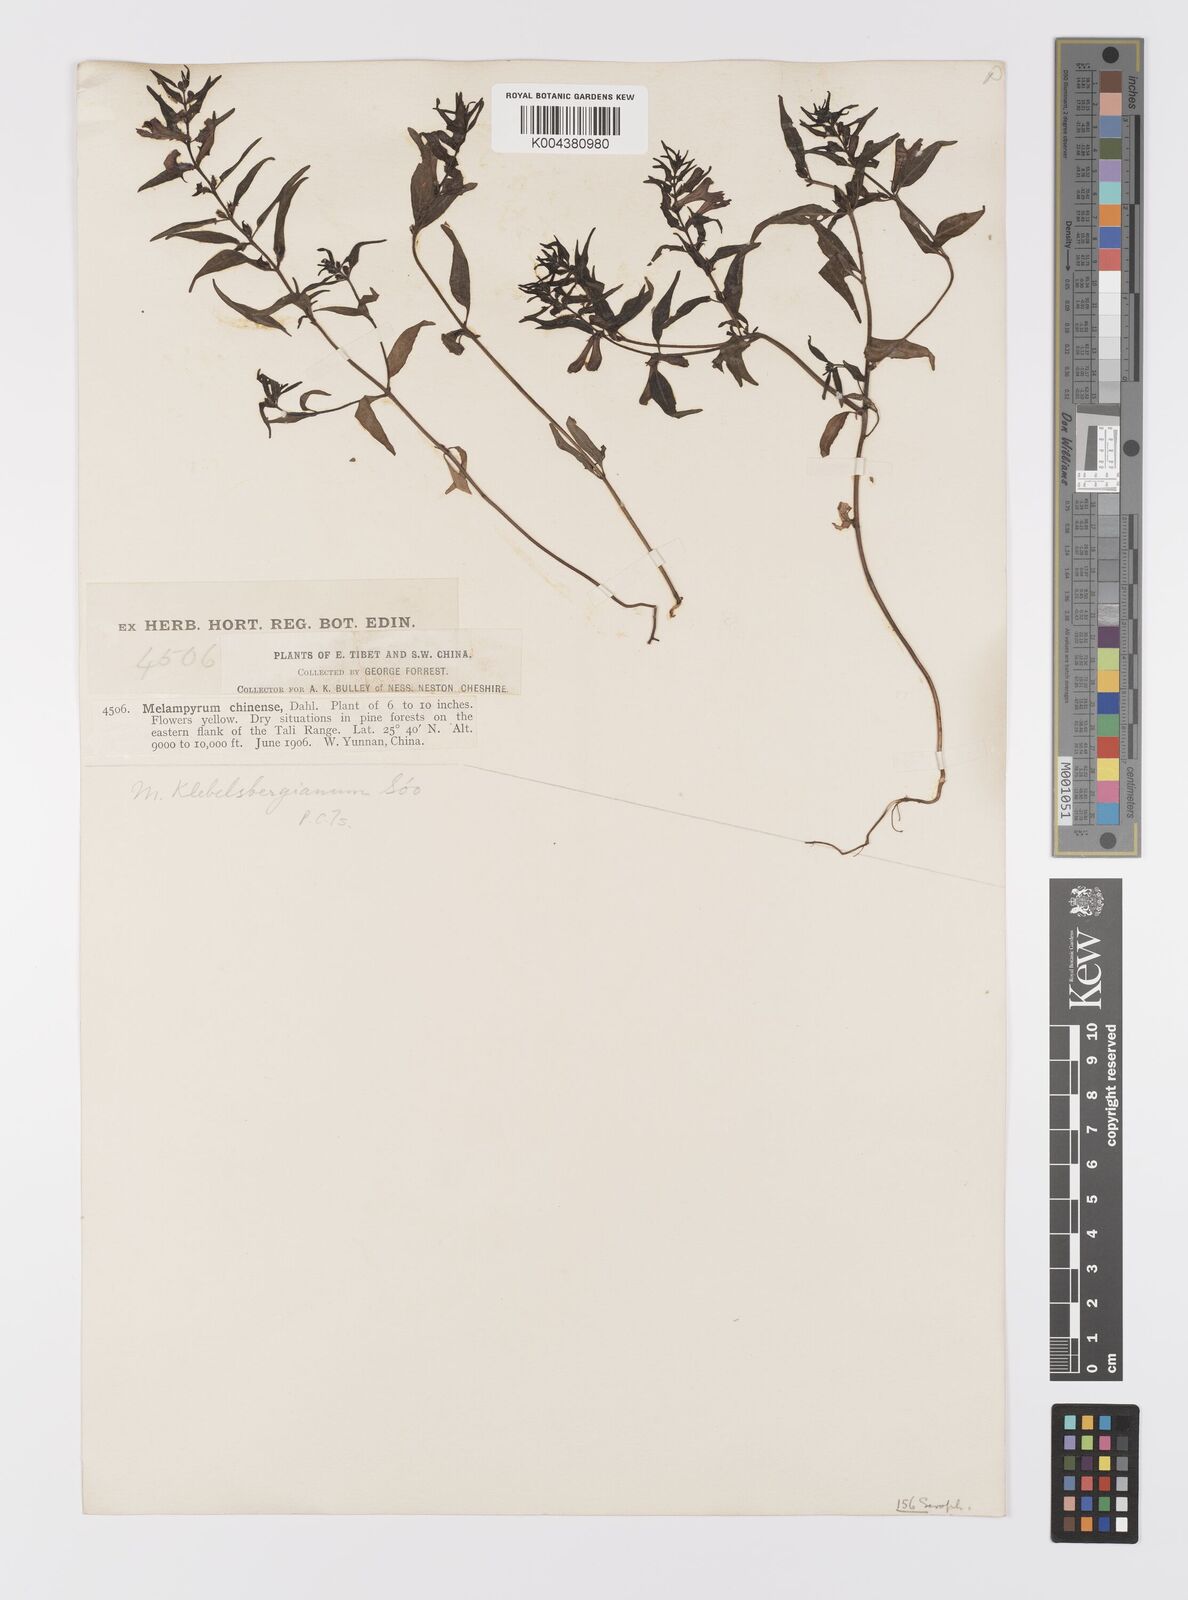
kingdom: Plantae
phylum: Tracheophyta
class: Magnoliopsida
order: Lamiales
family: Orobanchaceae
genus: Melampyrum
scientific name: Melampyrum chinense
